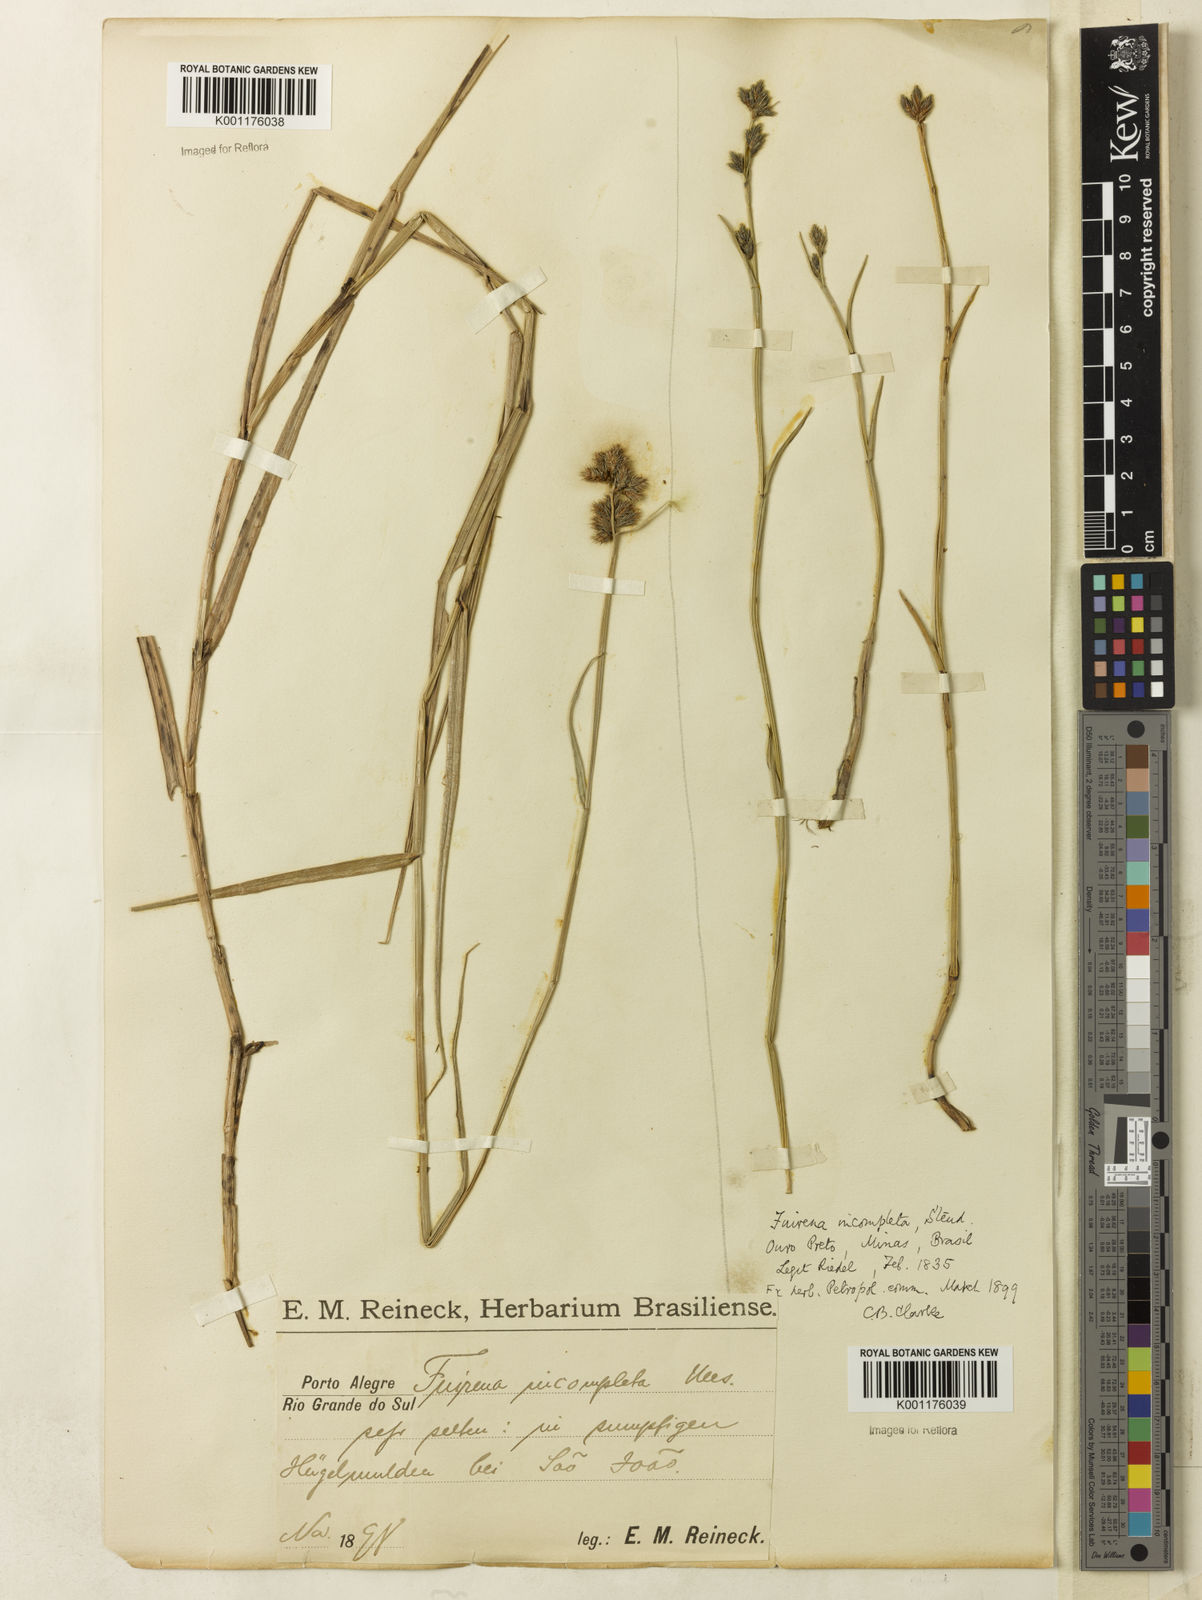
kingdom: Plantae
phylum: Tracheophyta
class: Liliopsida
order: Poales
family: Cyperaceae
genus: Fuirena
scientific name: Fuirena incompleta
